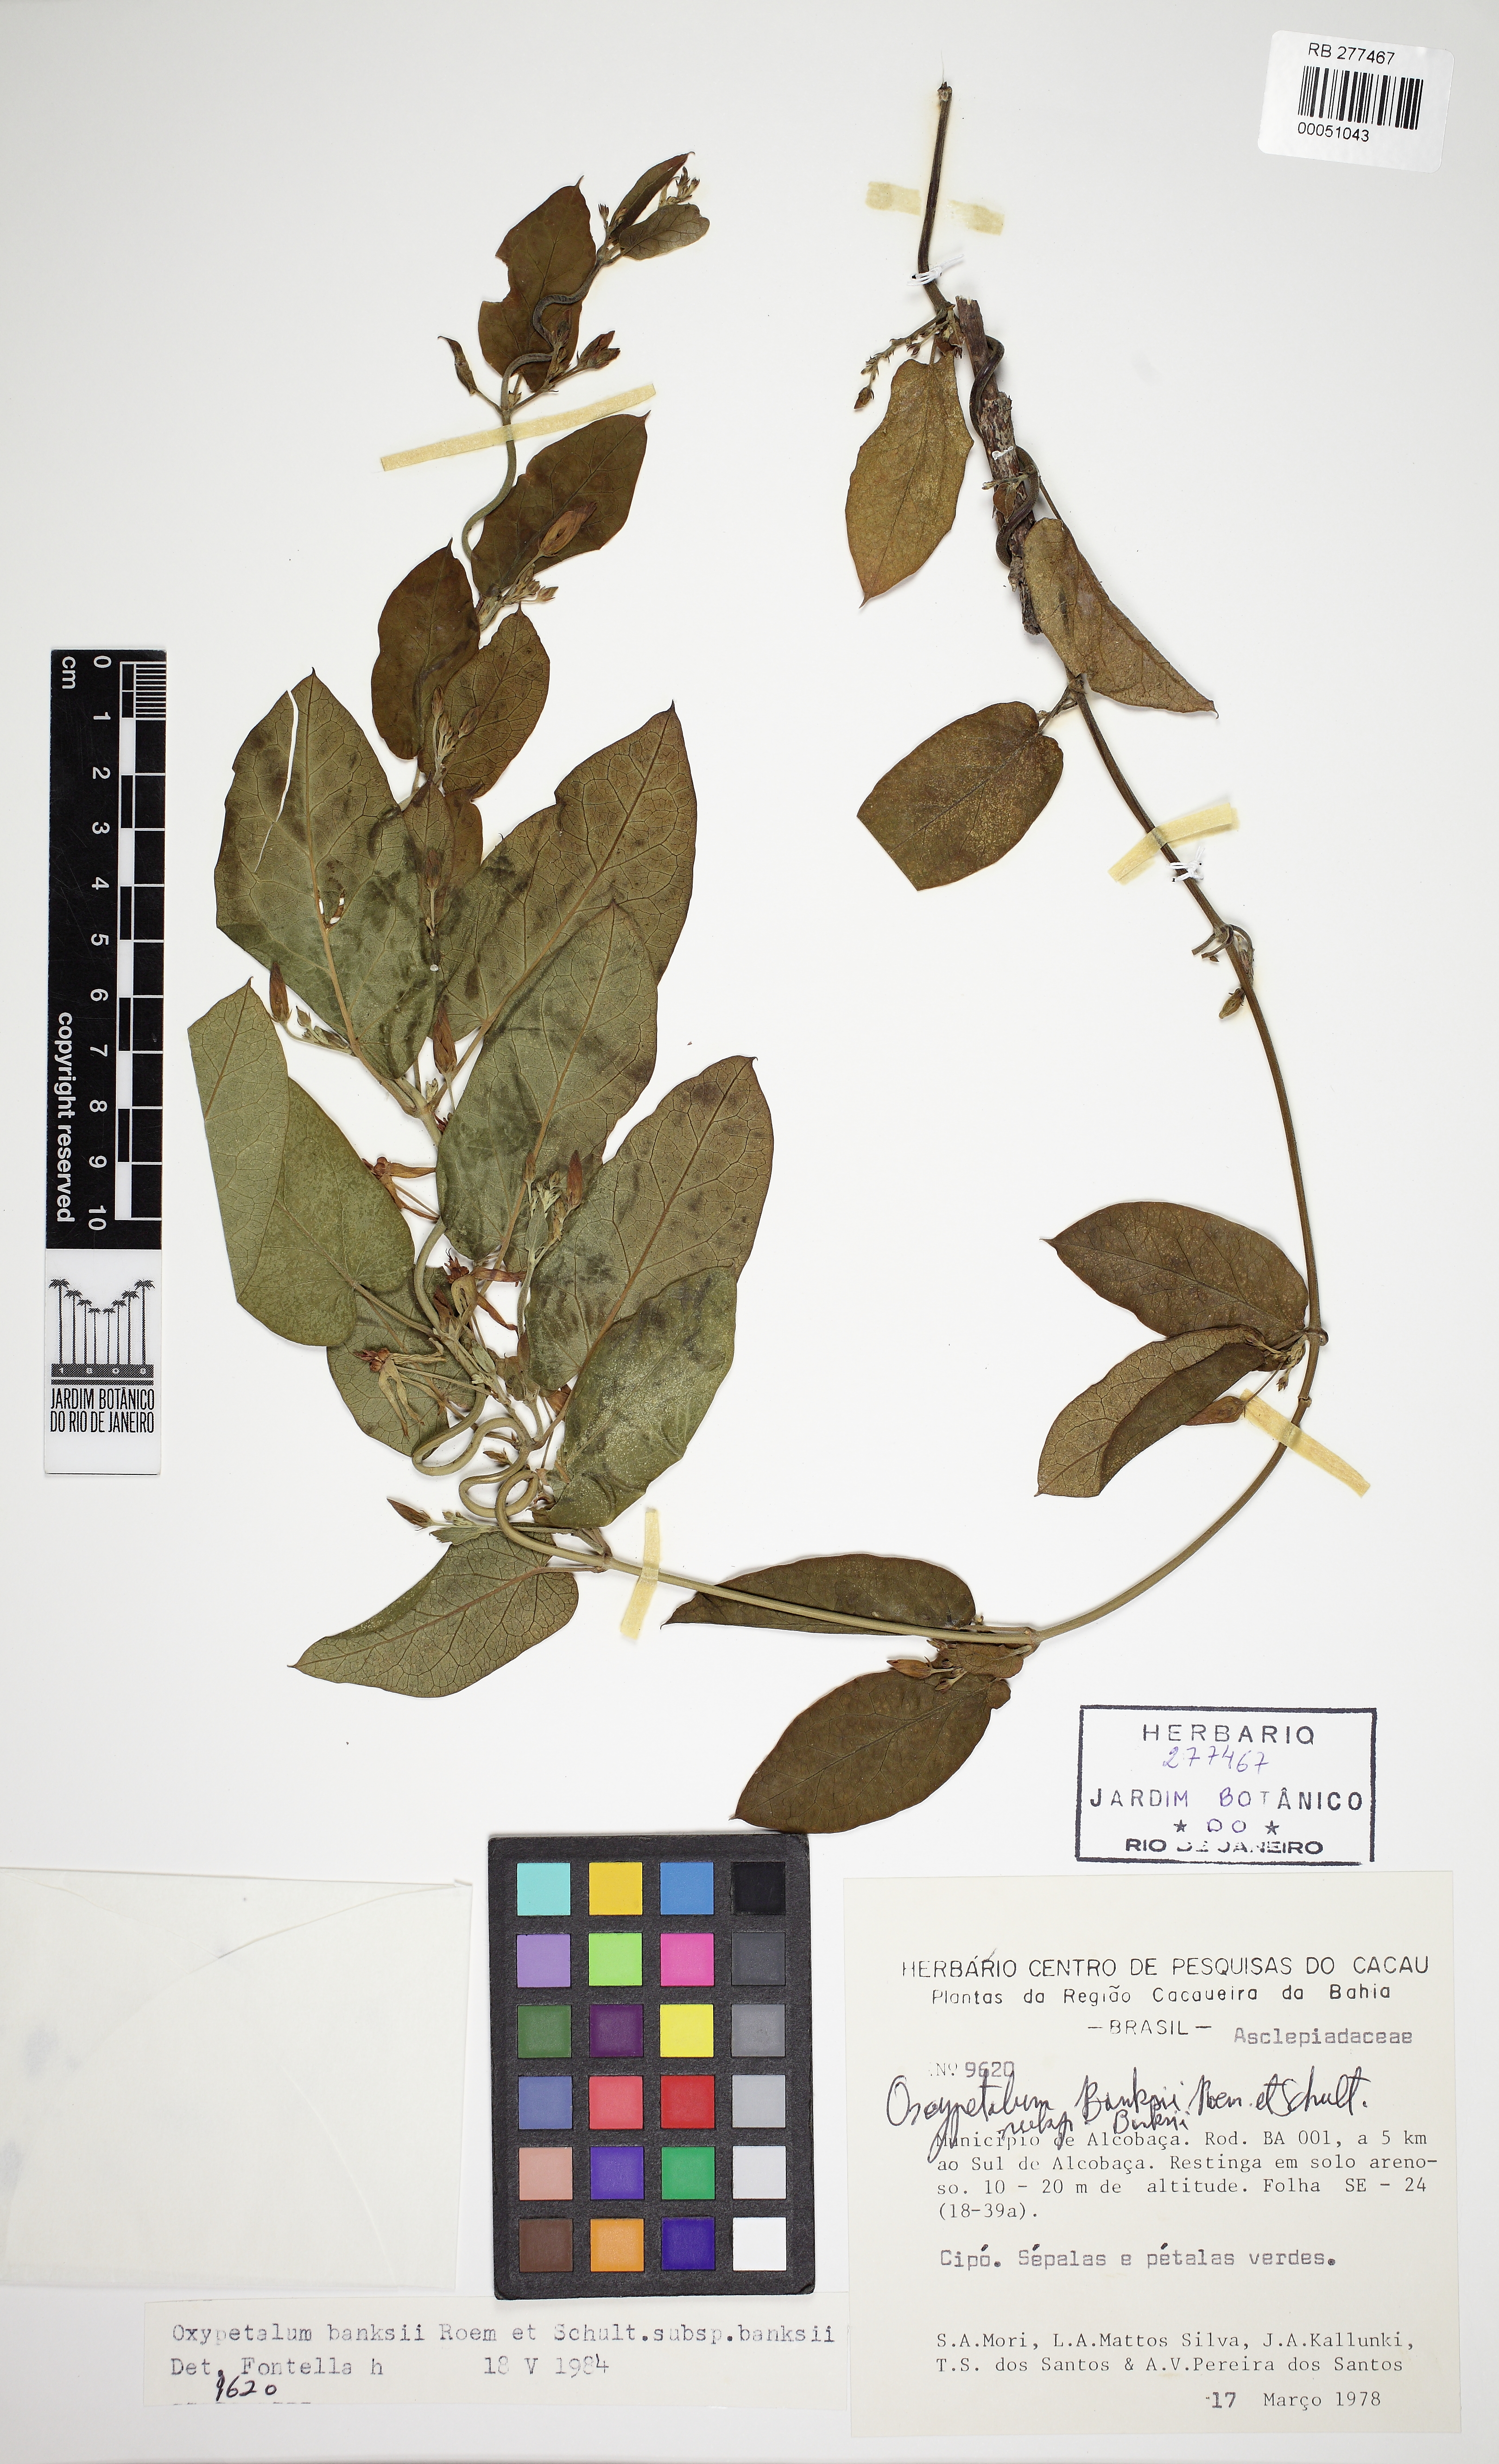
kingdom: Plantae
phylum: Tracheophyta
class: Magnoliopsida
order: Gentianales
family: Apocynaceae
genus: Oxypetalum
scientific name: Oxypetalum banksii
